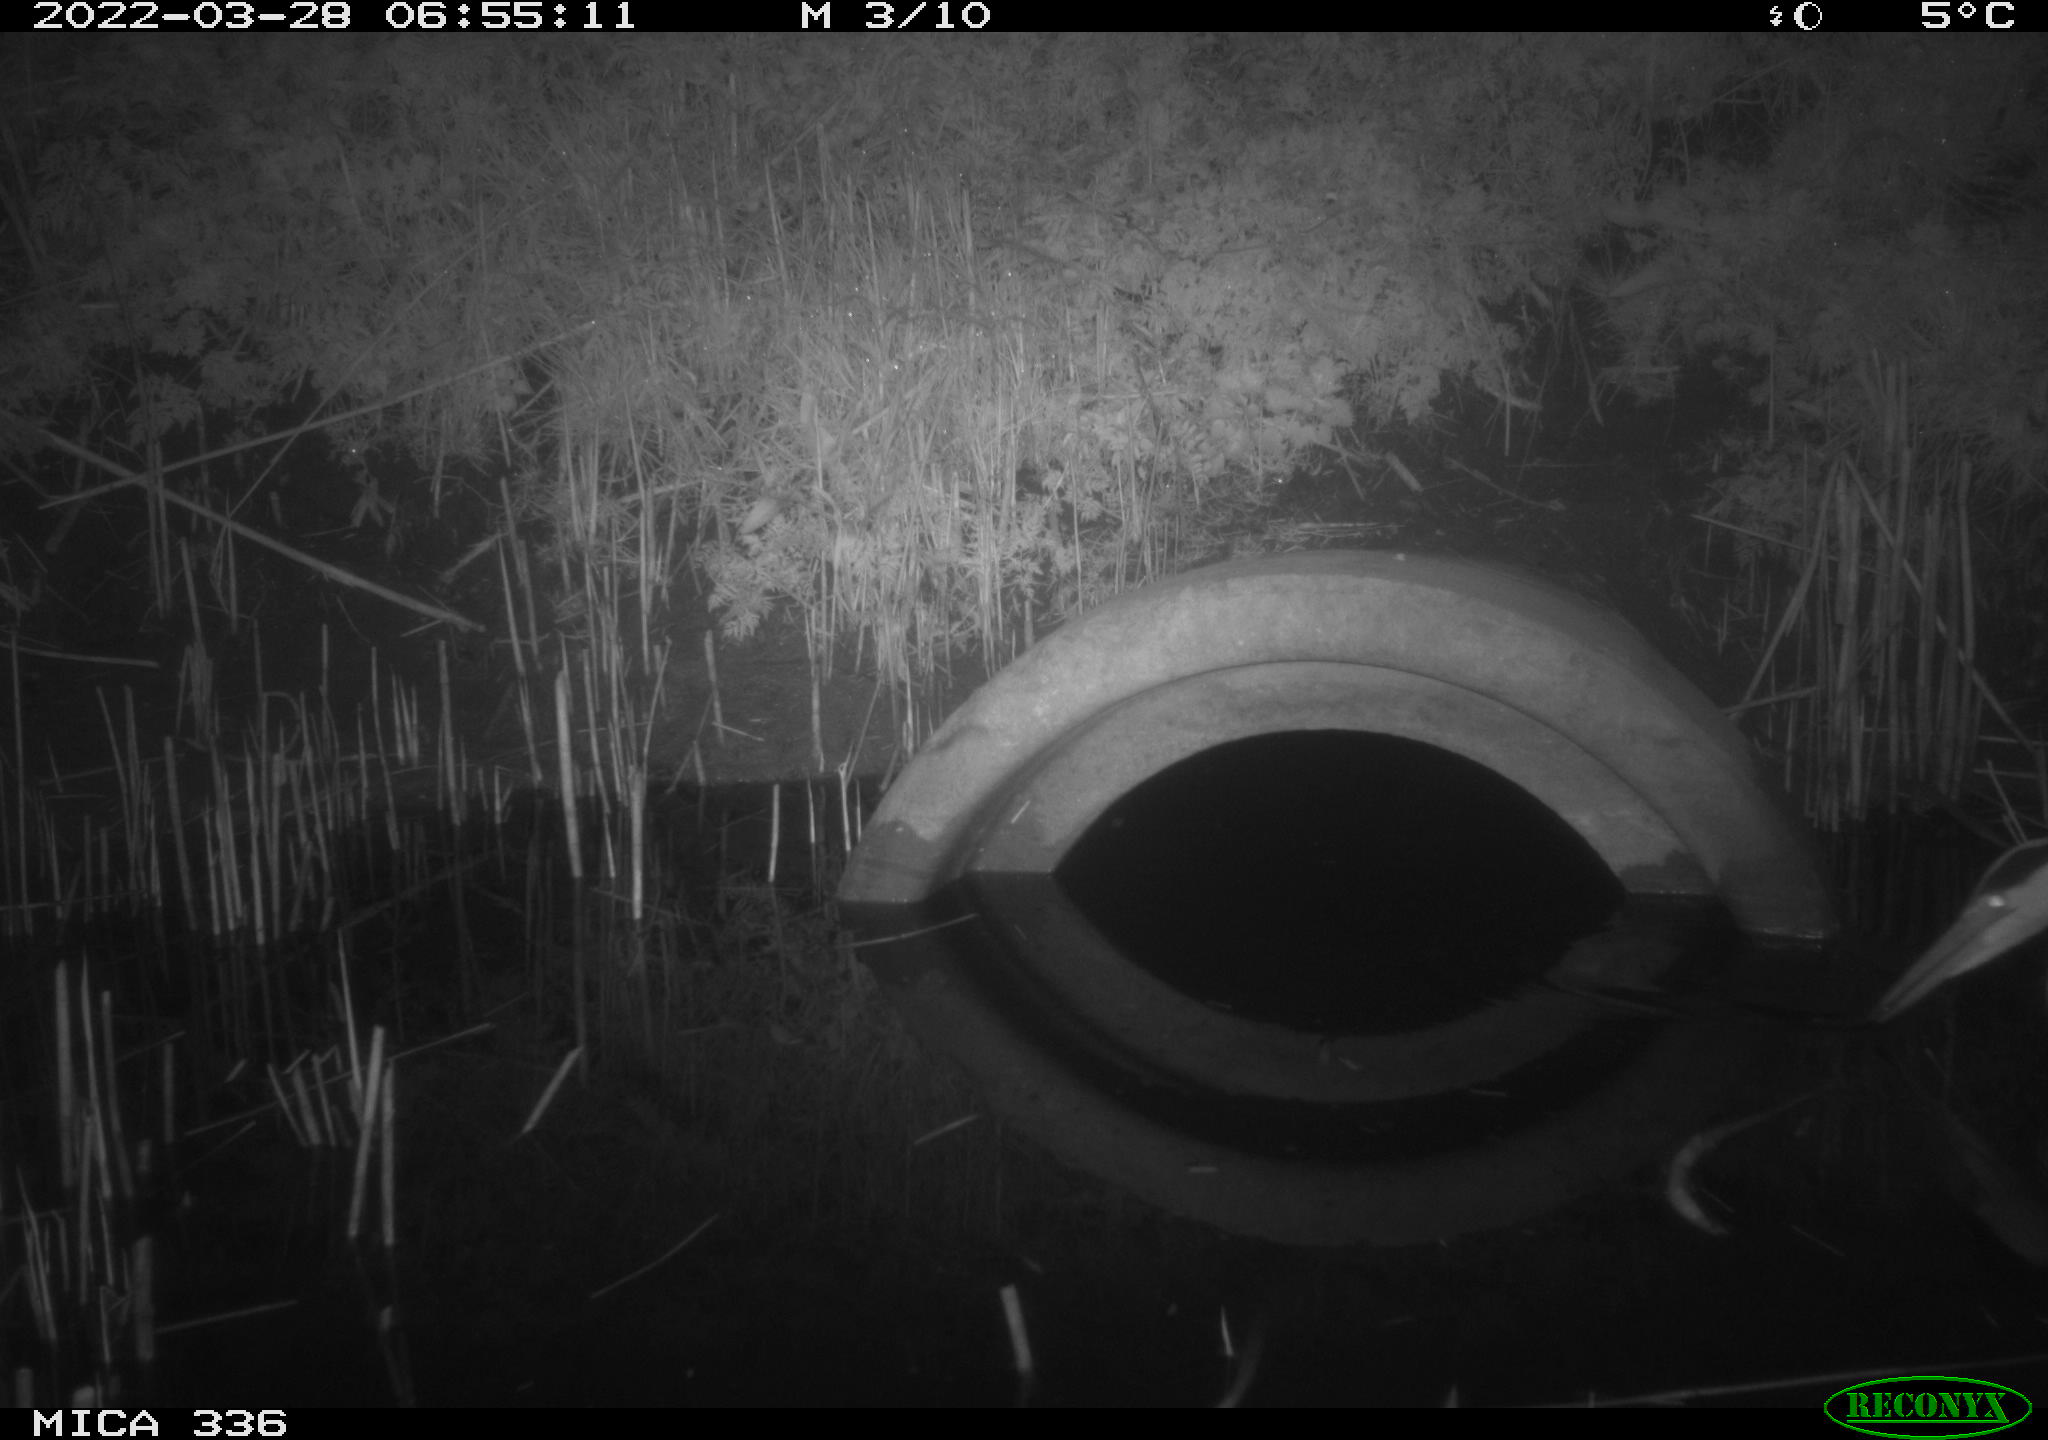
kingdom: Animalia
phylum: Chordata
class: Aves
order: Pelecaniformes
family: Ardeidae
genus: Ardea
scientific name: Ardea cinerea
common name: Grey heron
